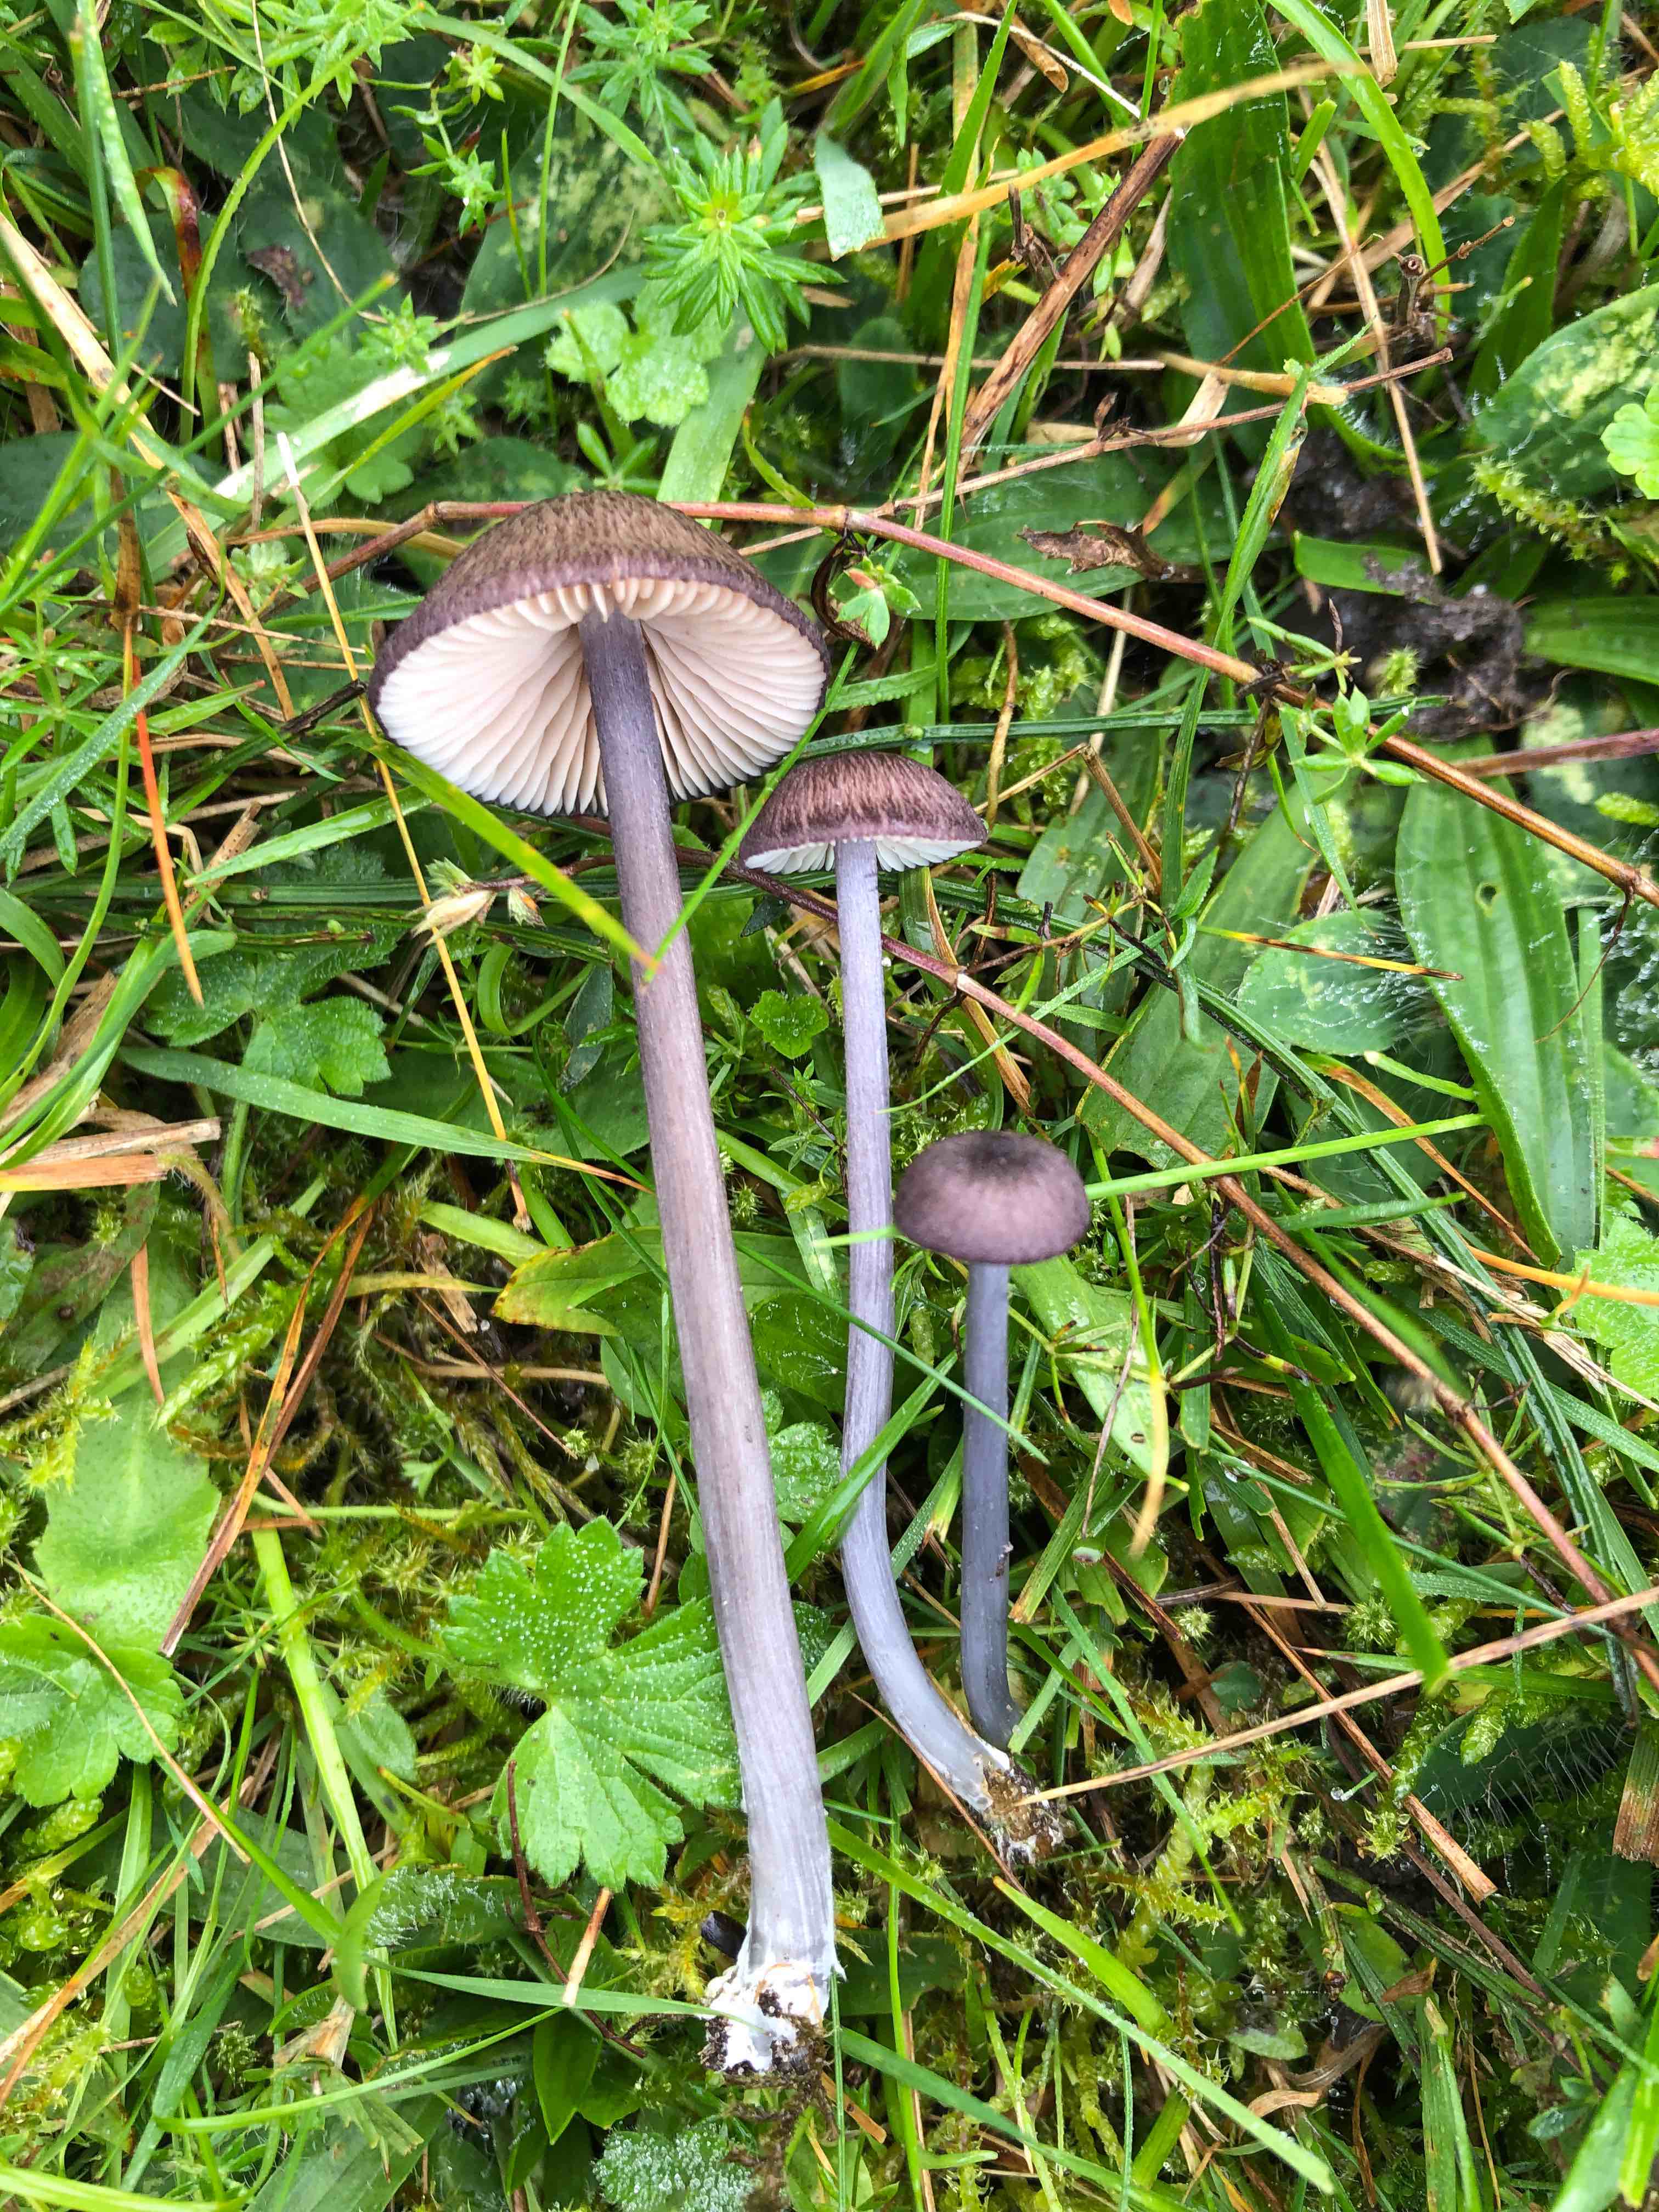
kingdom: Fungi
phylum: Basidiomycota
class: Agaricomycetes
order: Agaricales
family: Entolomataceae
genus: Entoloma
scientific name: Entoloma
